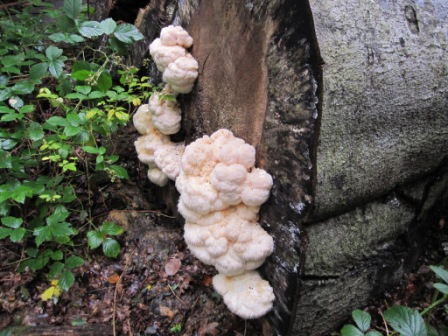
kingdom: Fungi
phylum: Basidiomycota
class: Agaricomycetes
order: Russulales
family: Hericiaceae
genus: Hericium
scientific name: Hericium erinaceus
